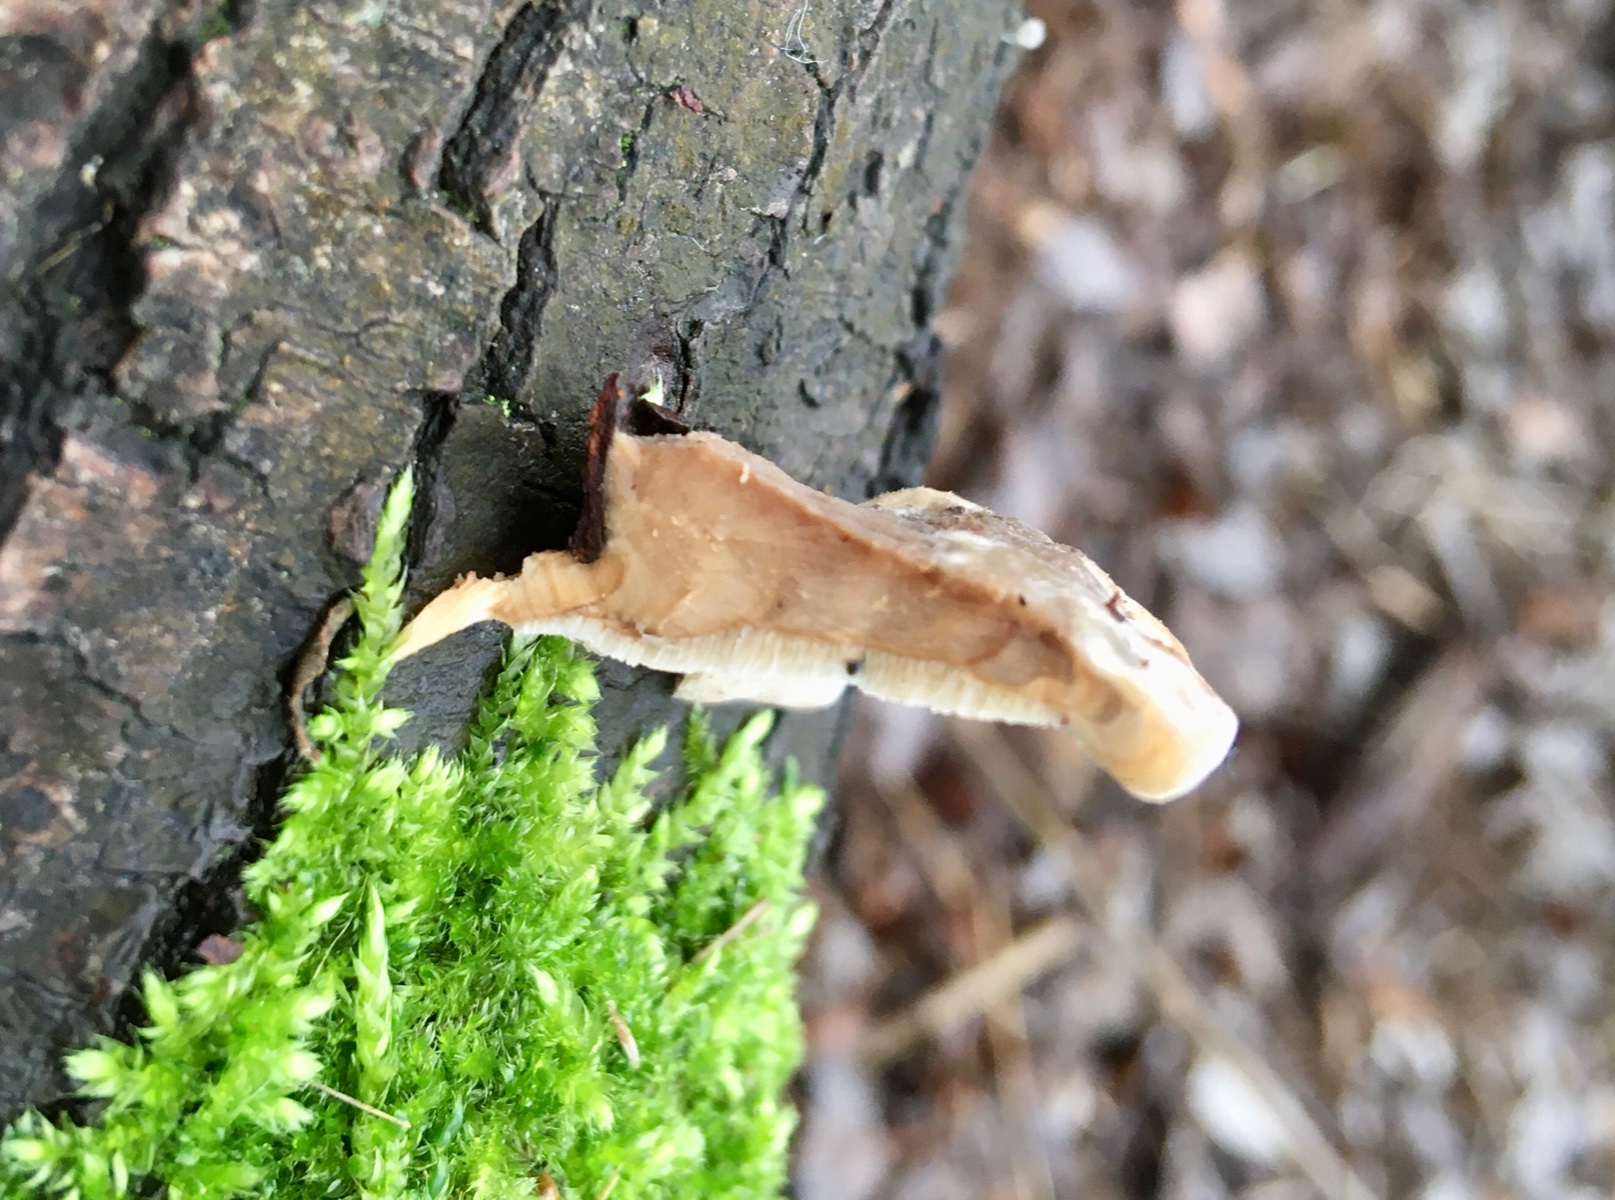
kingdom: Fungi
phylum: Basidiomycota
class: Agaricomycetes
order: Polyporales
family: Phanerochaetaceae
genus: Bjerkandera
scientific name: Bjerkandera fumosa
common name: grågul sodporesvamp
